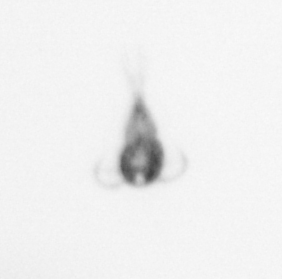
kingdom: Animalia
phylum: Arthropoda
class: Copepoda
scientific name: Copepoda
